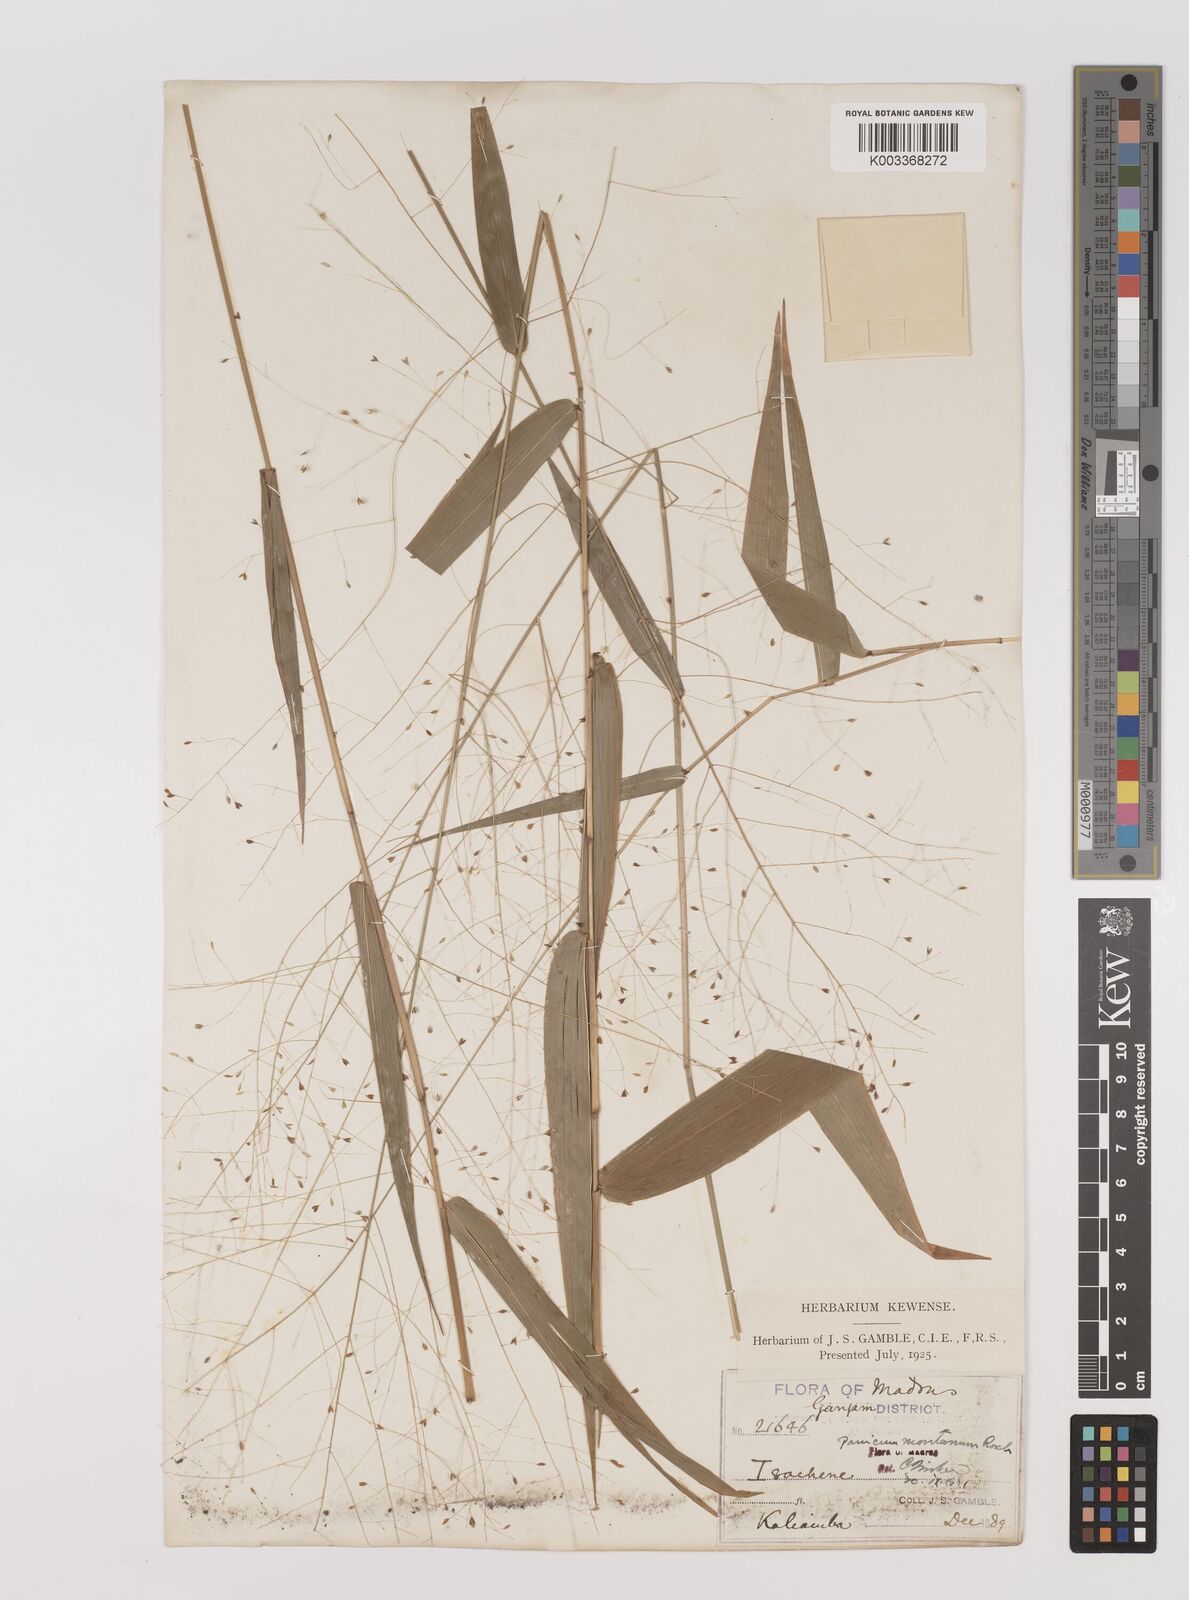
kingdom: Plantae
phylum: Tracheophyta
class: Liliopsida
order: Poales
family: Poaceae
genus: Panicum
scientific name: Panicum notatum
